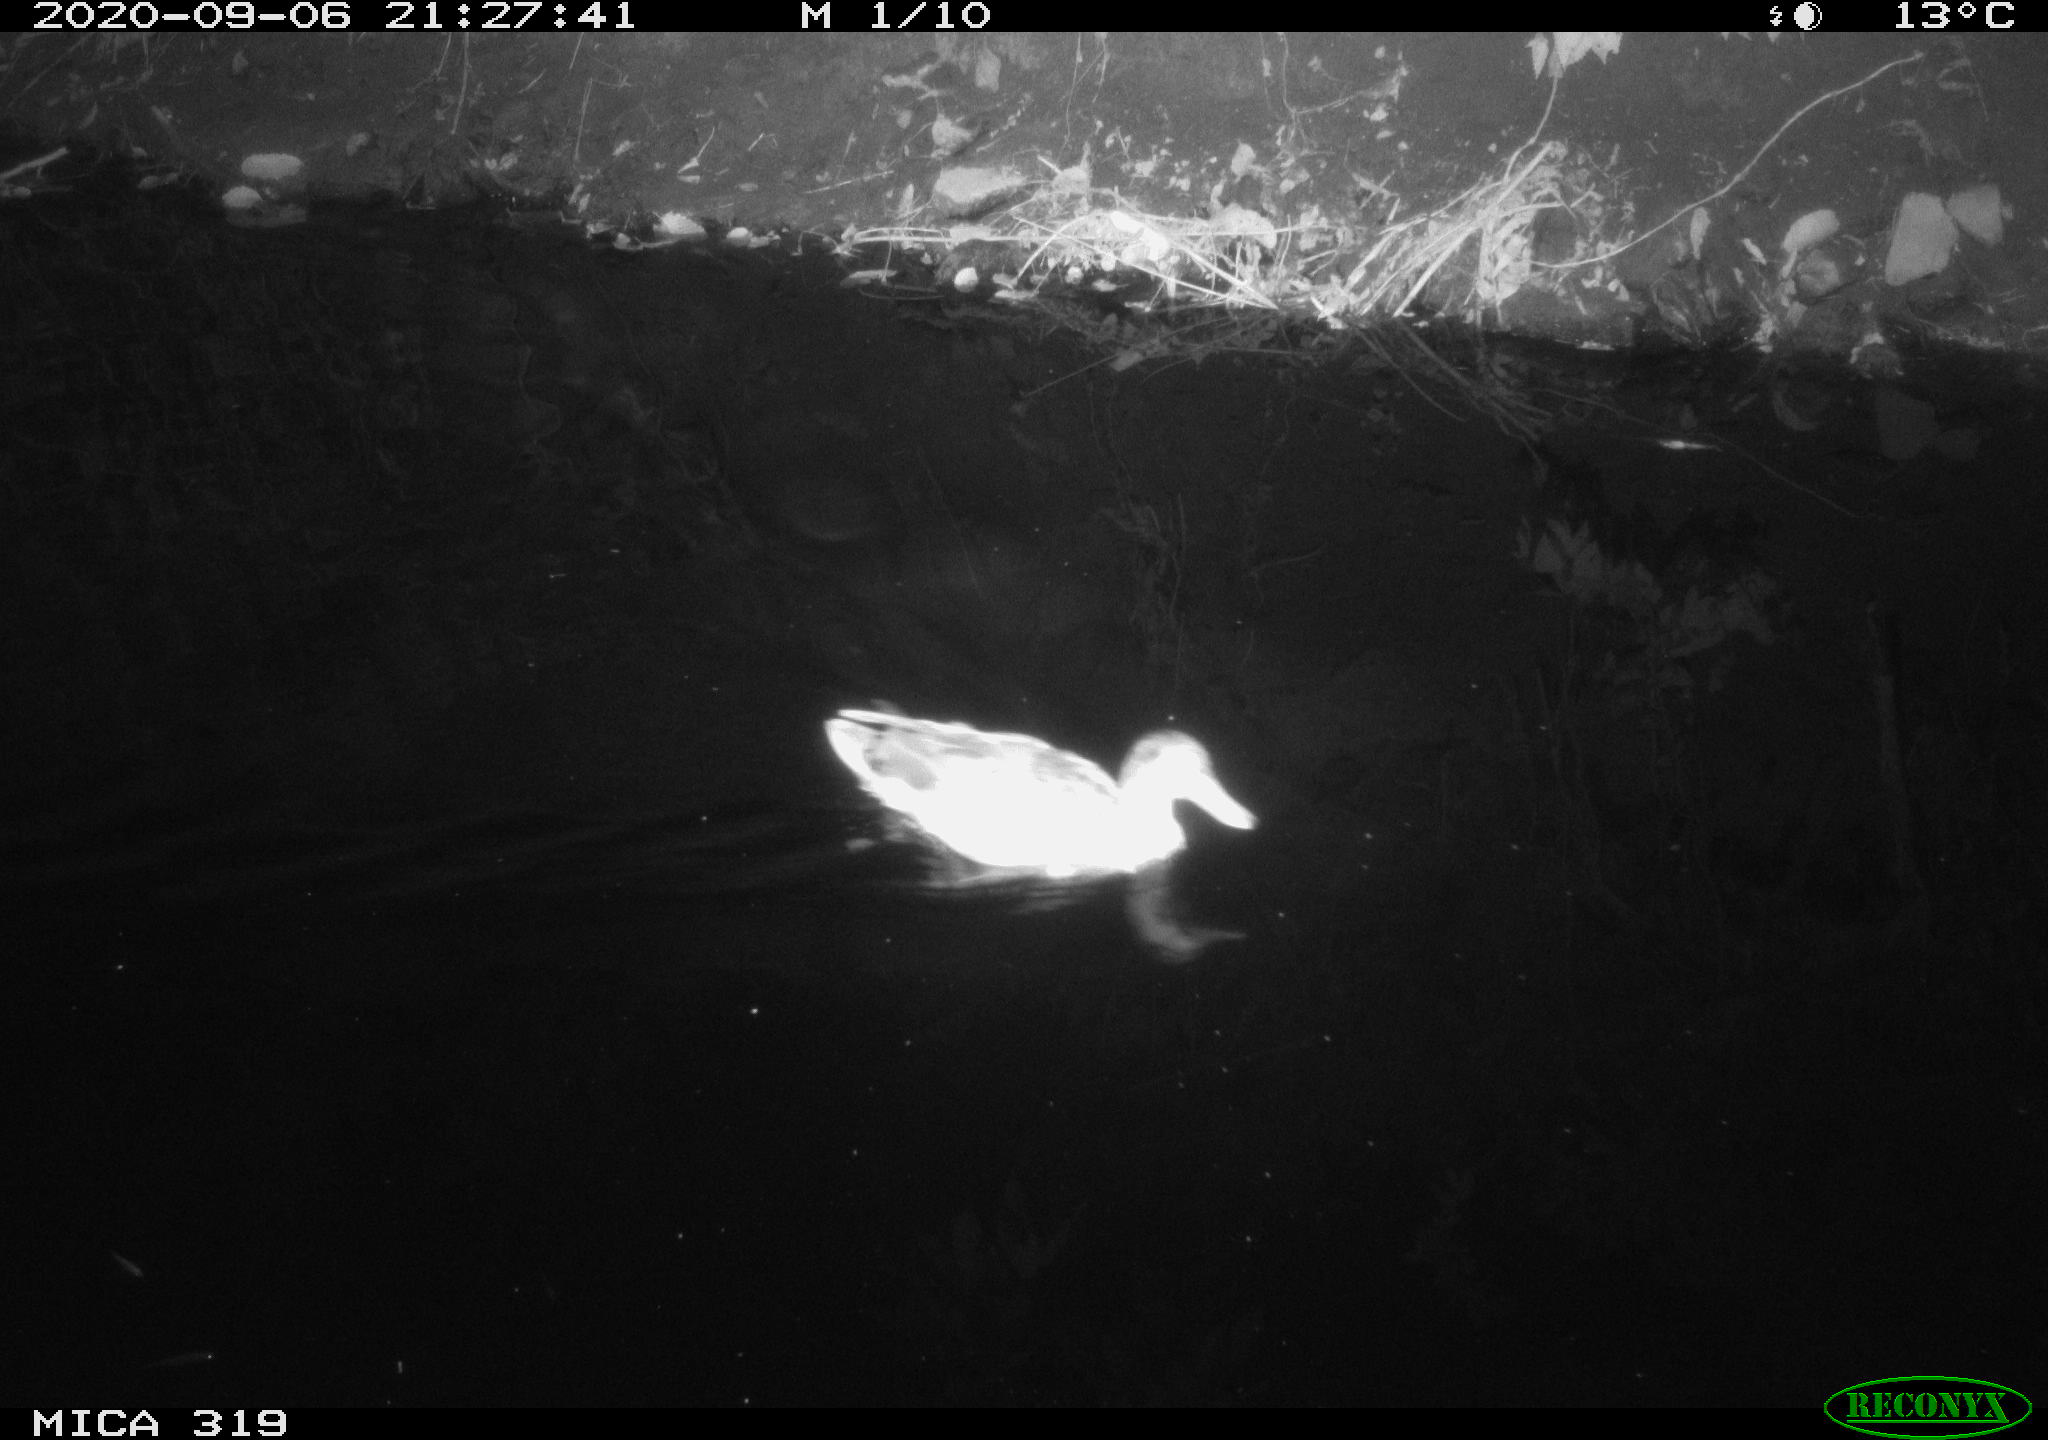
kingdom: Animalia
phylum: Chordata
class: Aves
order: Anseriformes
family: Anatidae
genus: Anas
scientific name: Anas platyrhynchos
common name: Mallard
